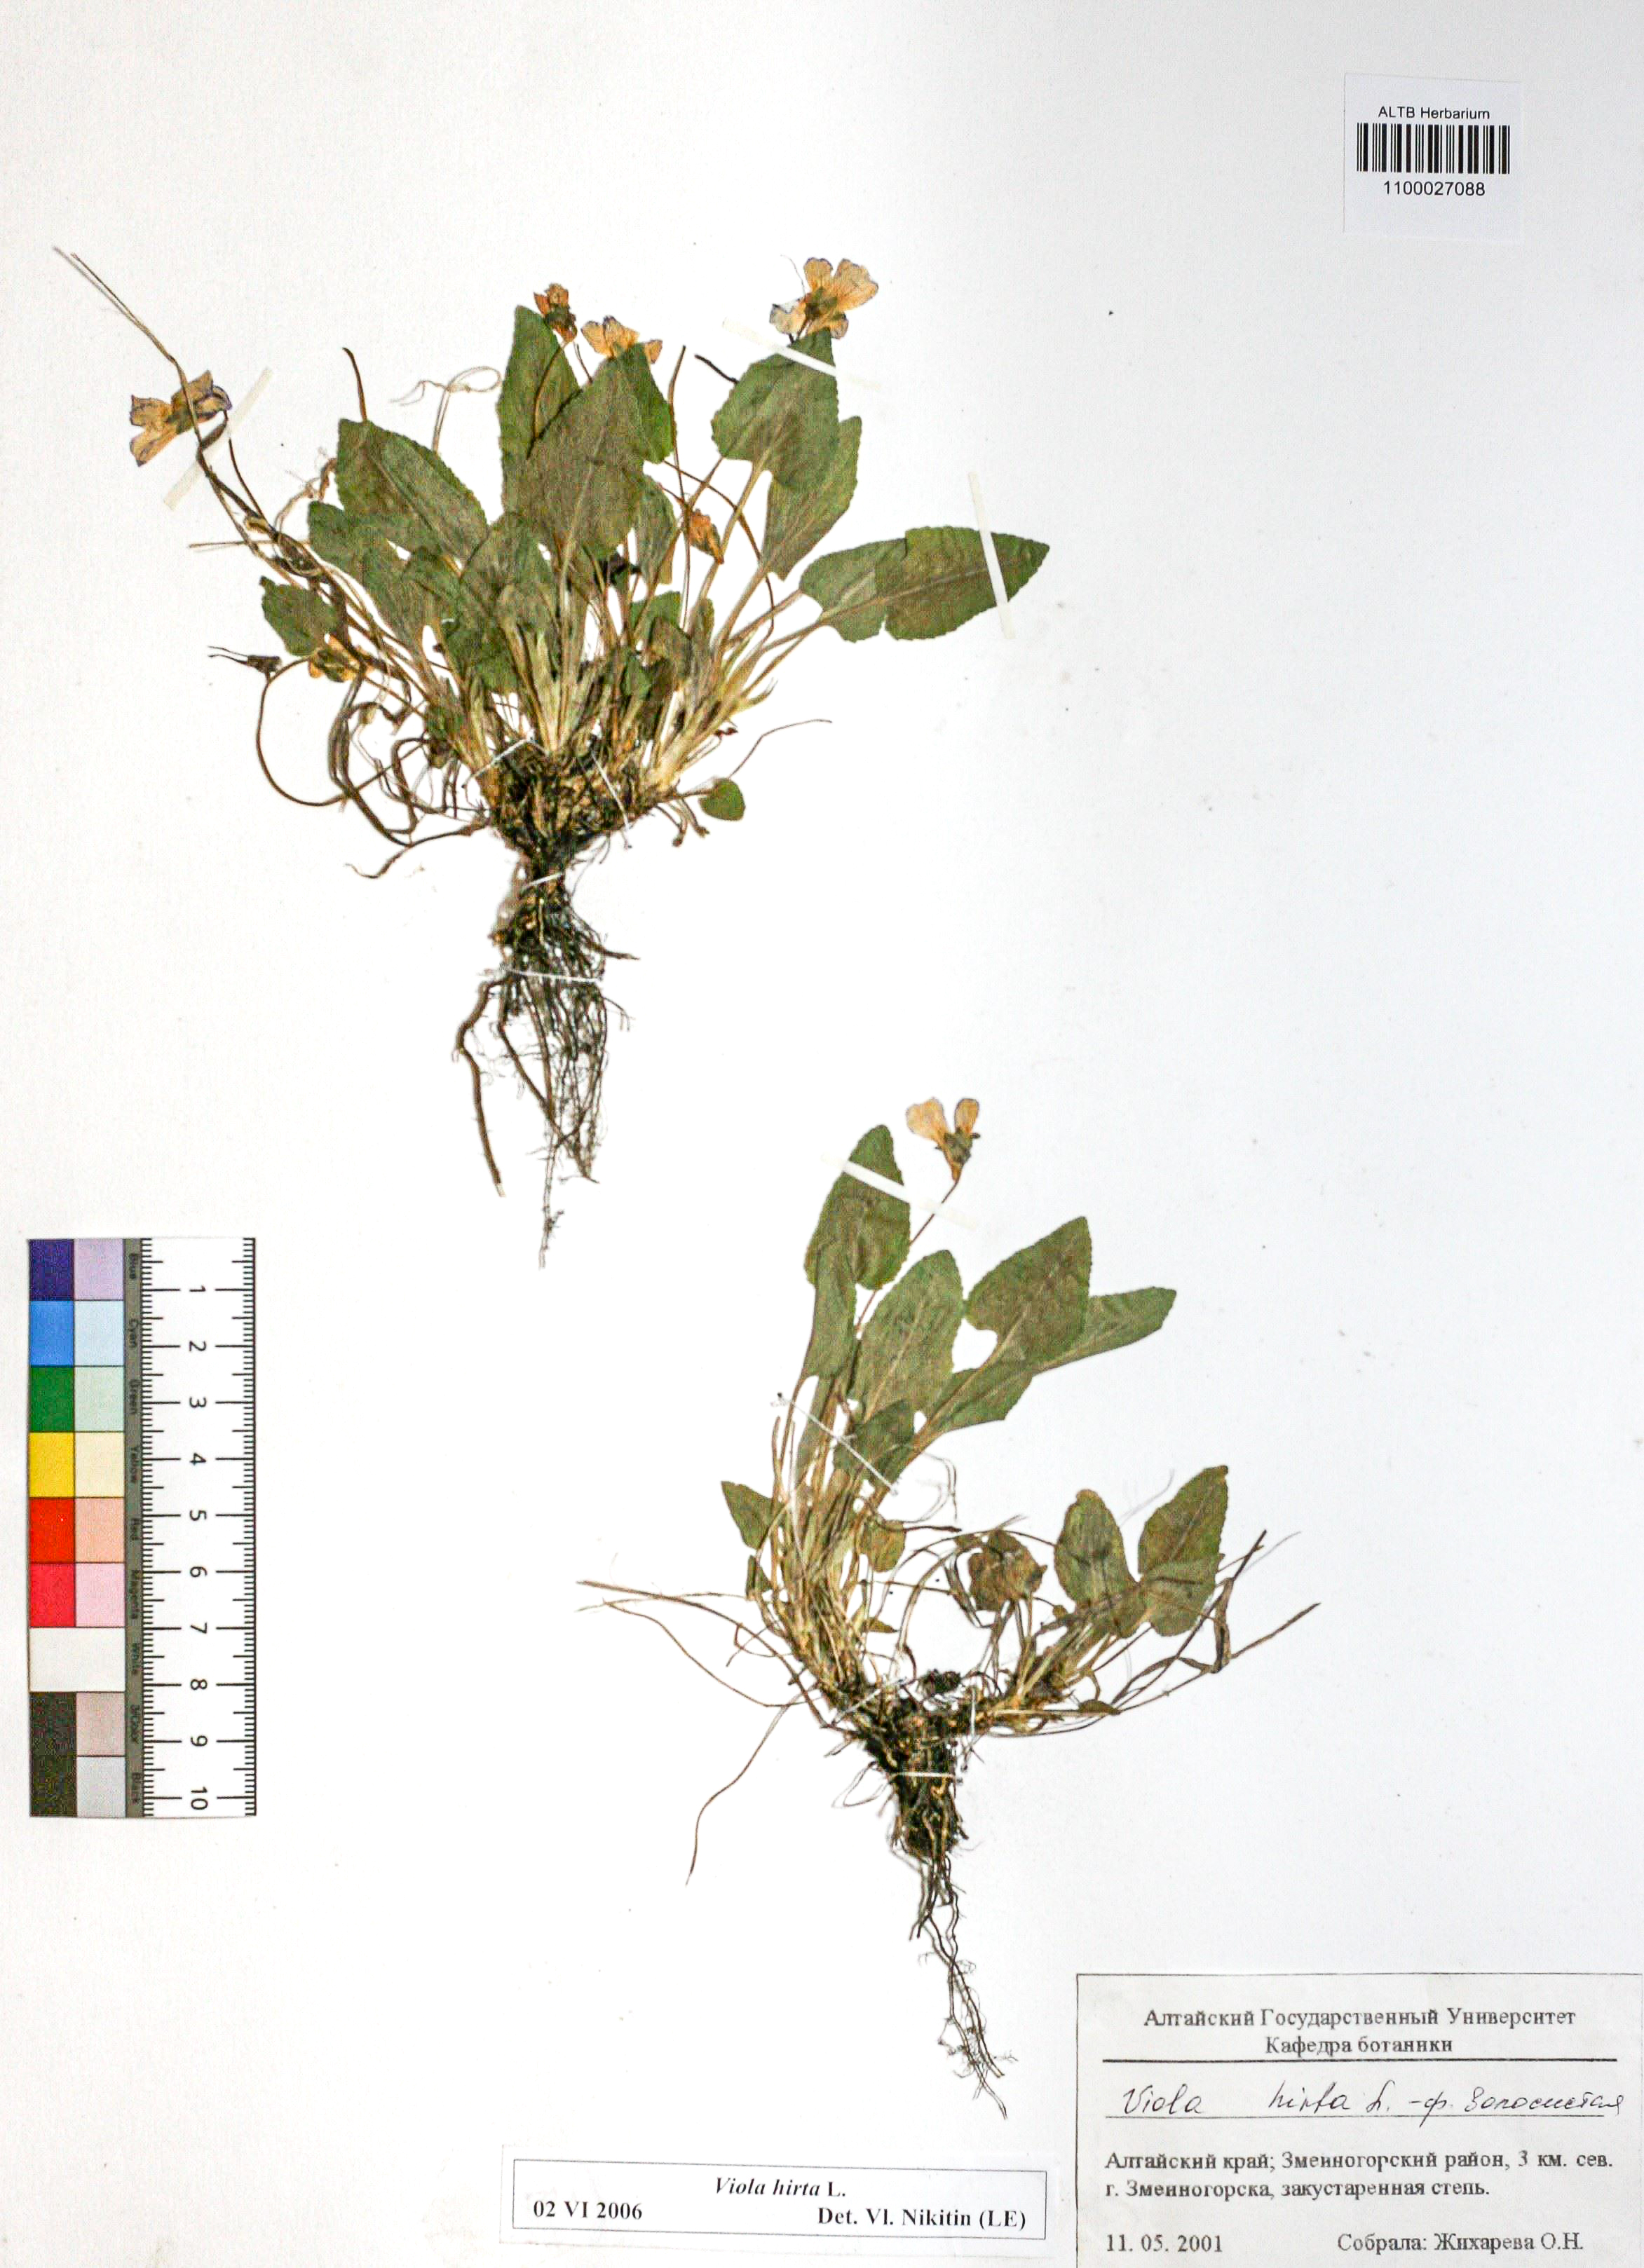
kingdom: Plantae
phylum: Tracheophyta
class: Magnoliopsida
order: Malpighiales
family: Violaceae
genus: Viola
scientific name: Viola hirta
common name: Hairy violet
